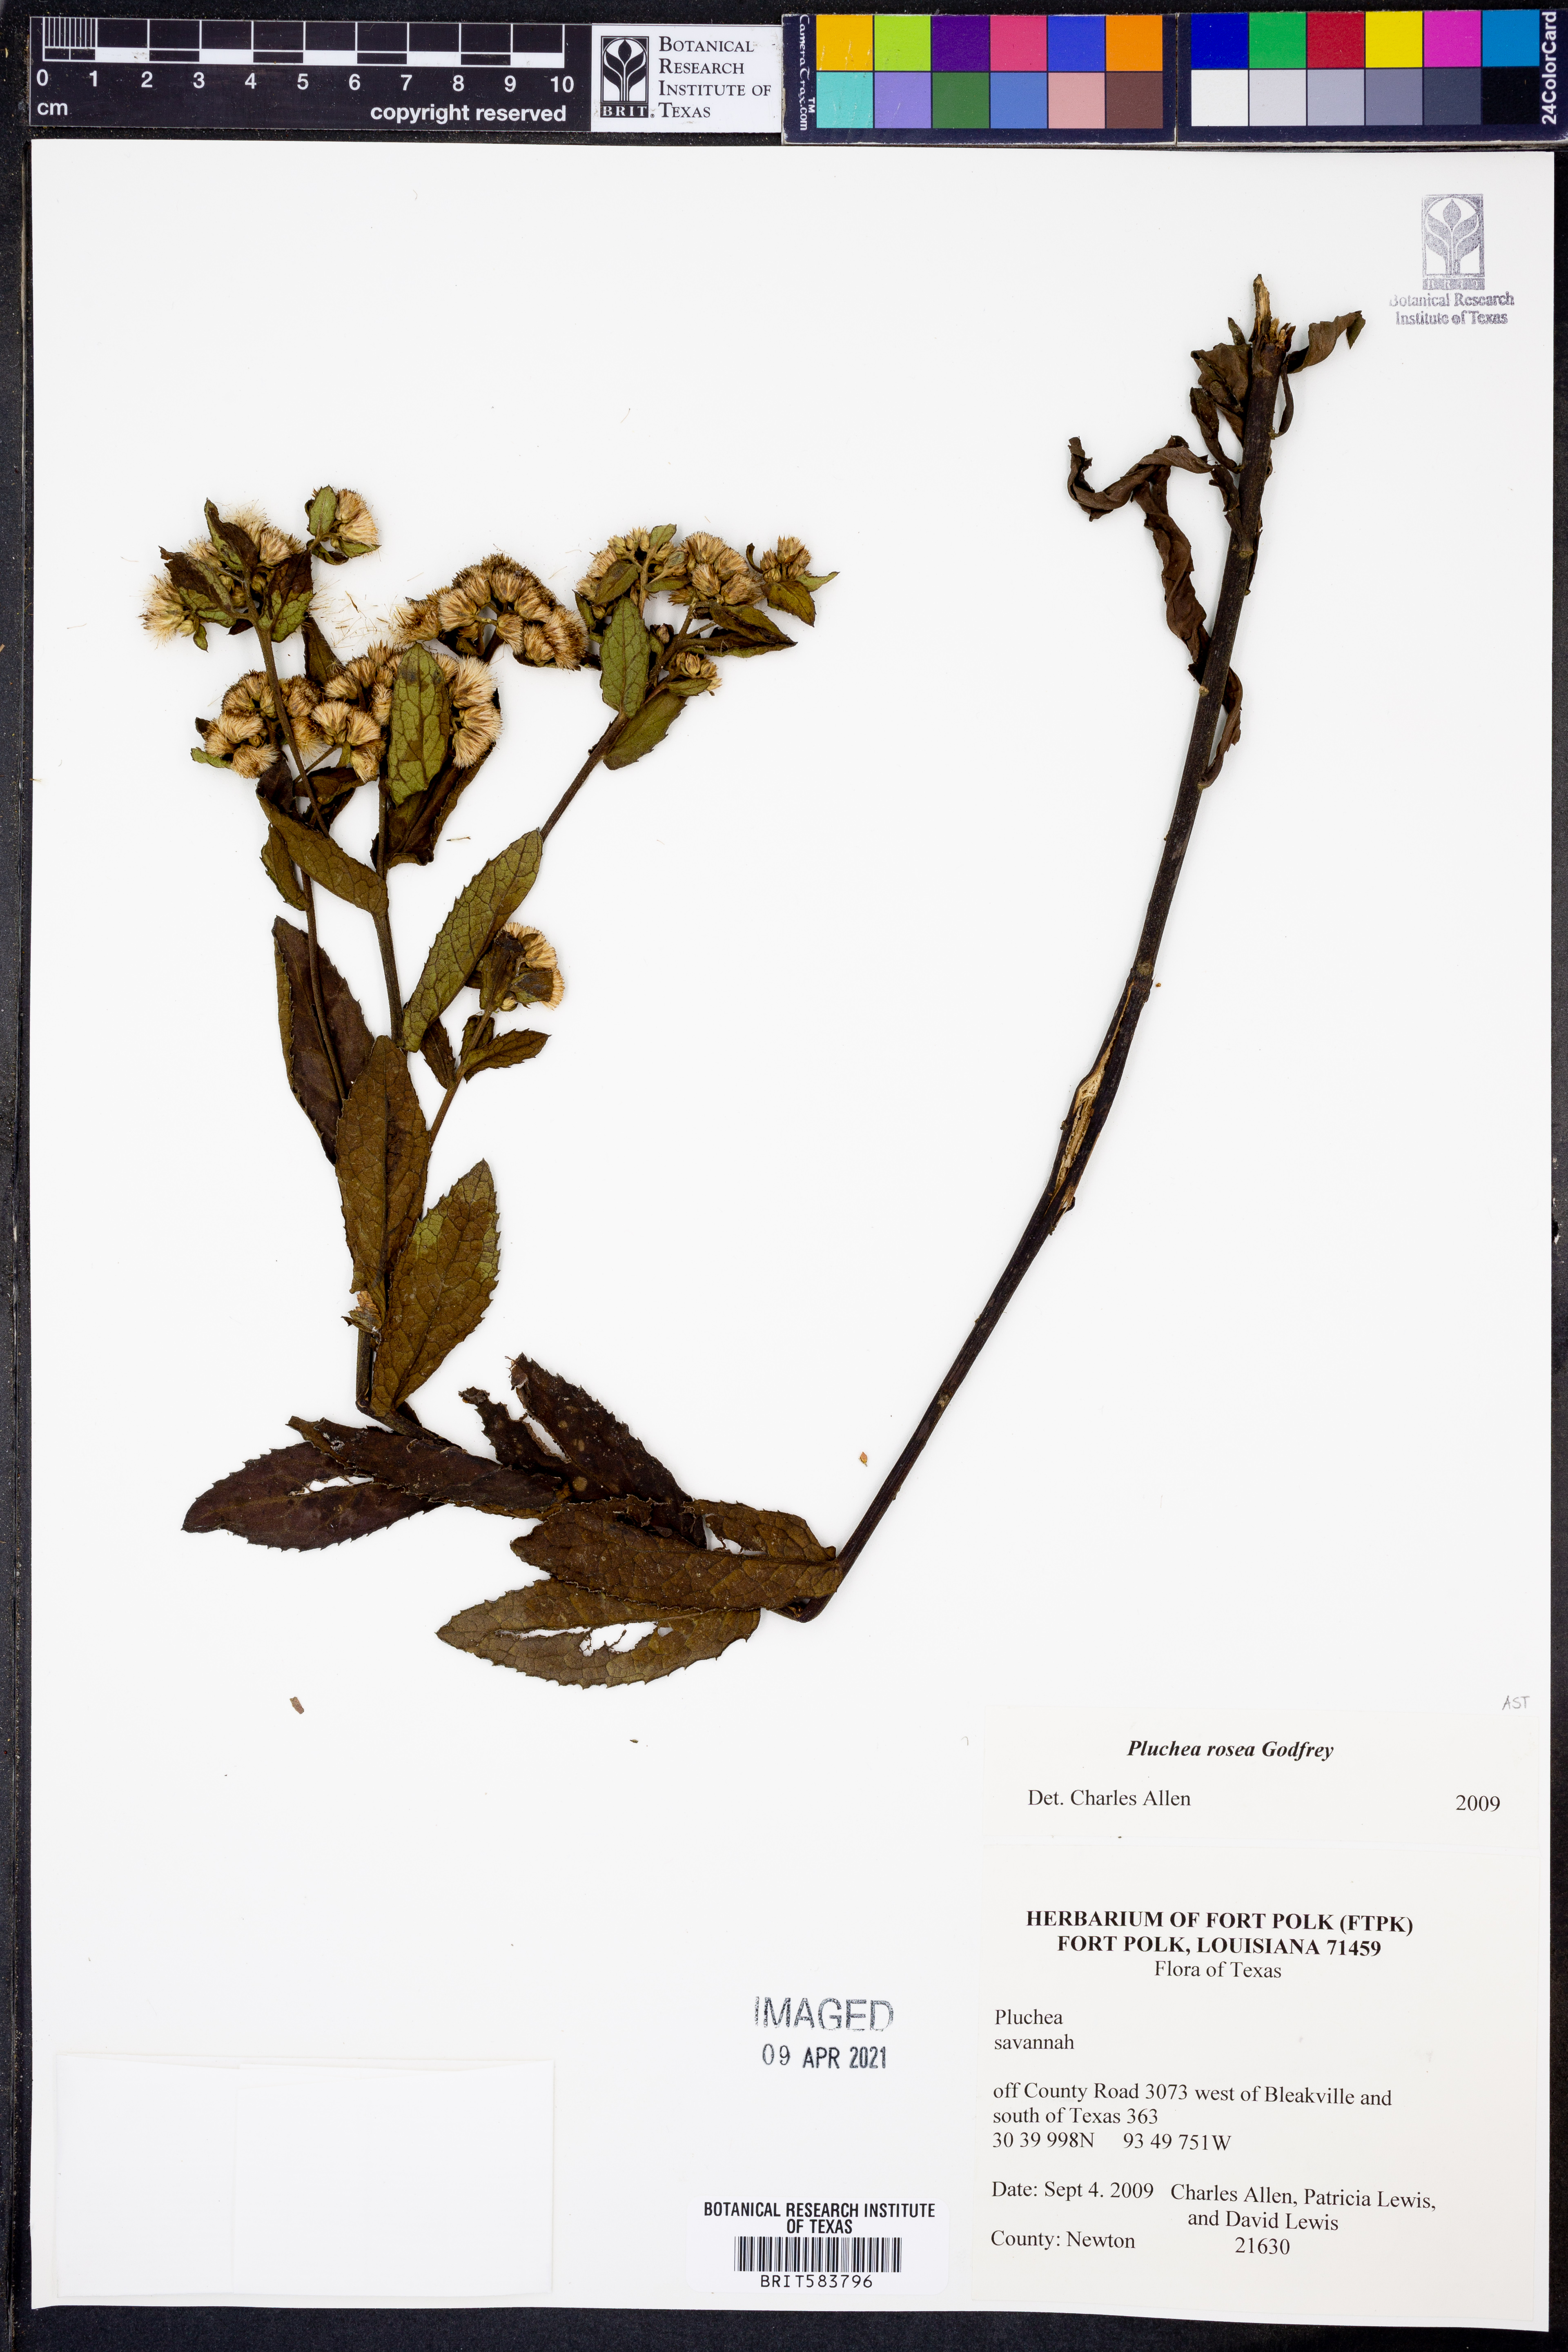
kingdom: Plantae
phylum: Tracheophyta
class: Magnoliopsida
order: Asterales
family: Asteraceae
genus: Pluchea
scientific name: Pluchea baccharis
